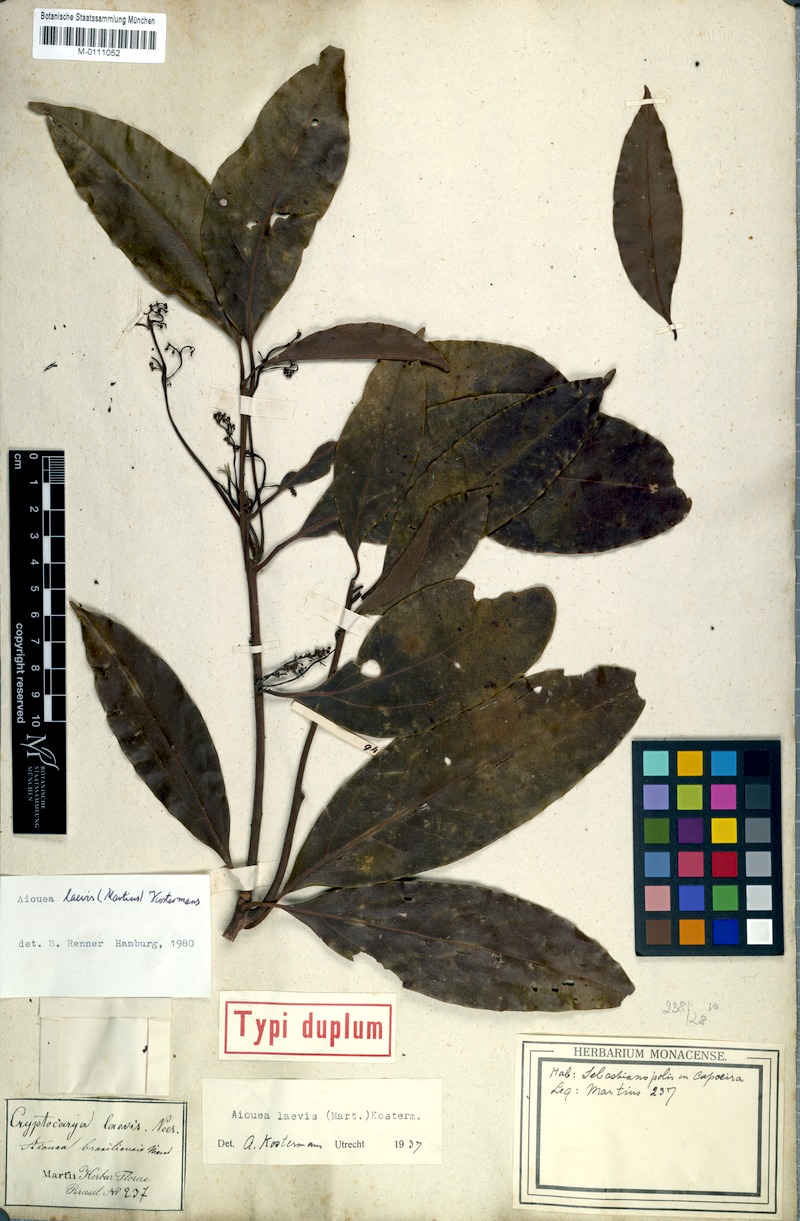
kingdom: Plantae
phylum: Tracheophyta
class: Magnoliopsida
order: Laurales
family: Lauraceae
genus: Aiouea
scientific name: Aiouea laevis
